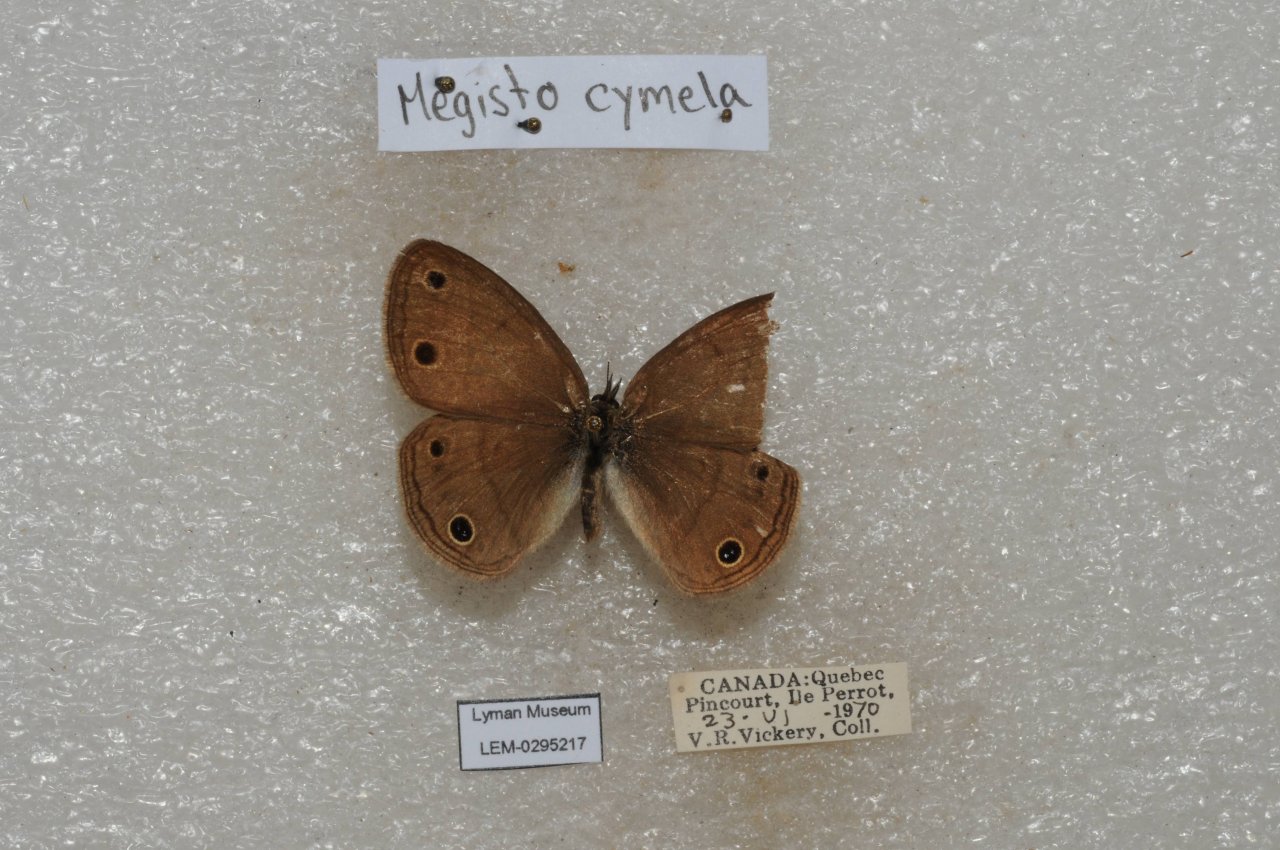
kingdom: Animalia
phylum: Arthropoda
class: Insecta
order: Lepidoptera
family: Nymphalidae
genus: Euptychia
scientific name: Euptychia cymela
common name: Little Wood Satyr
